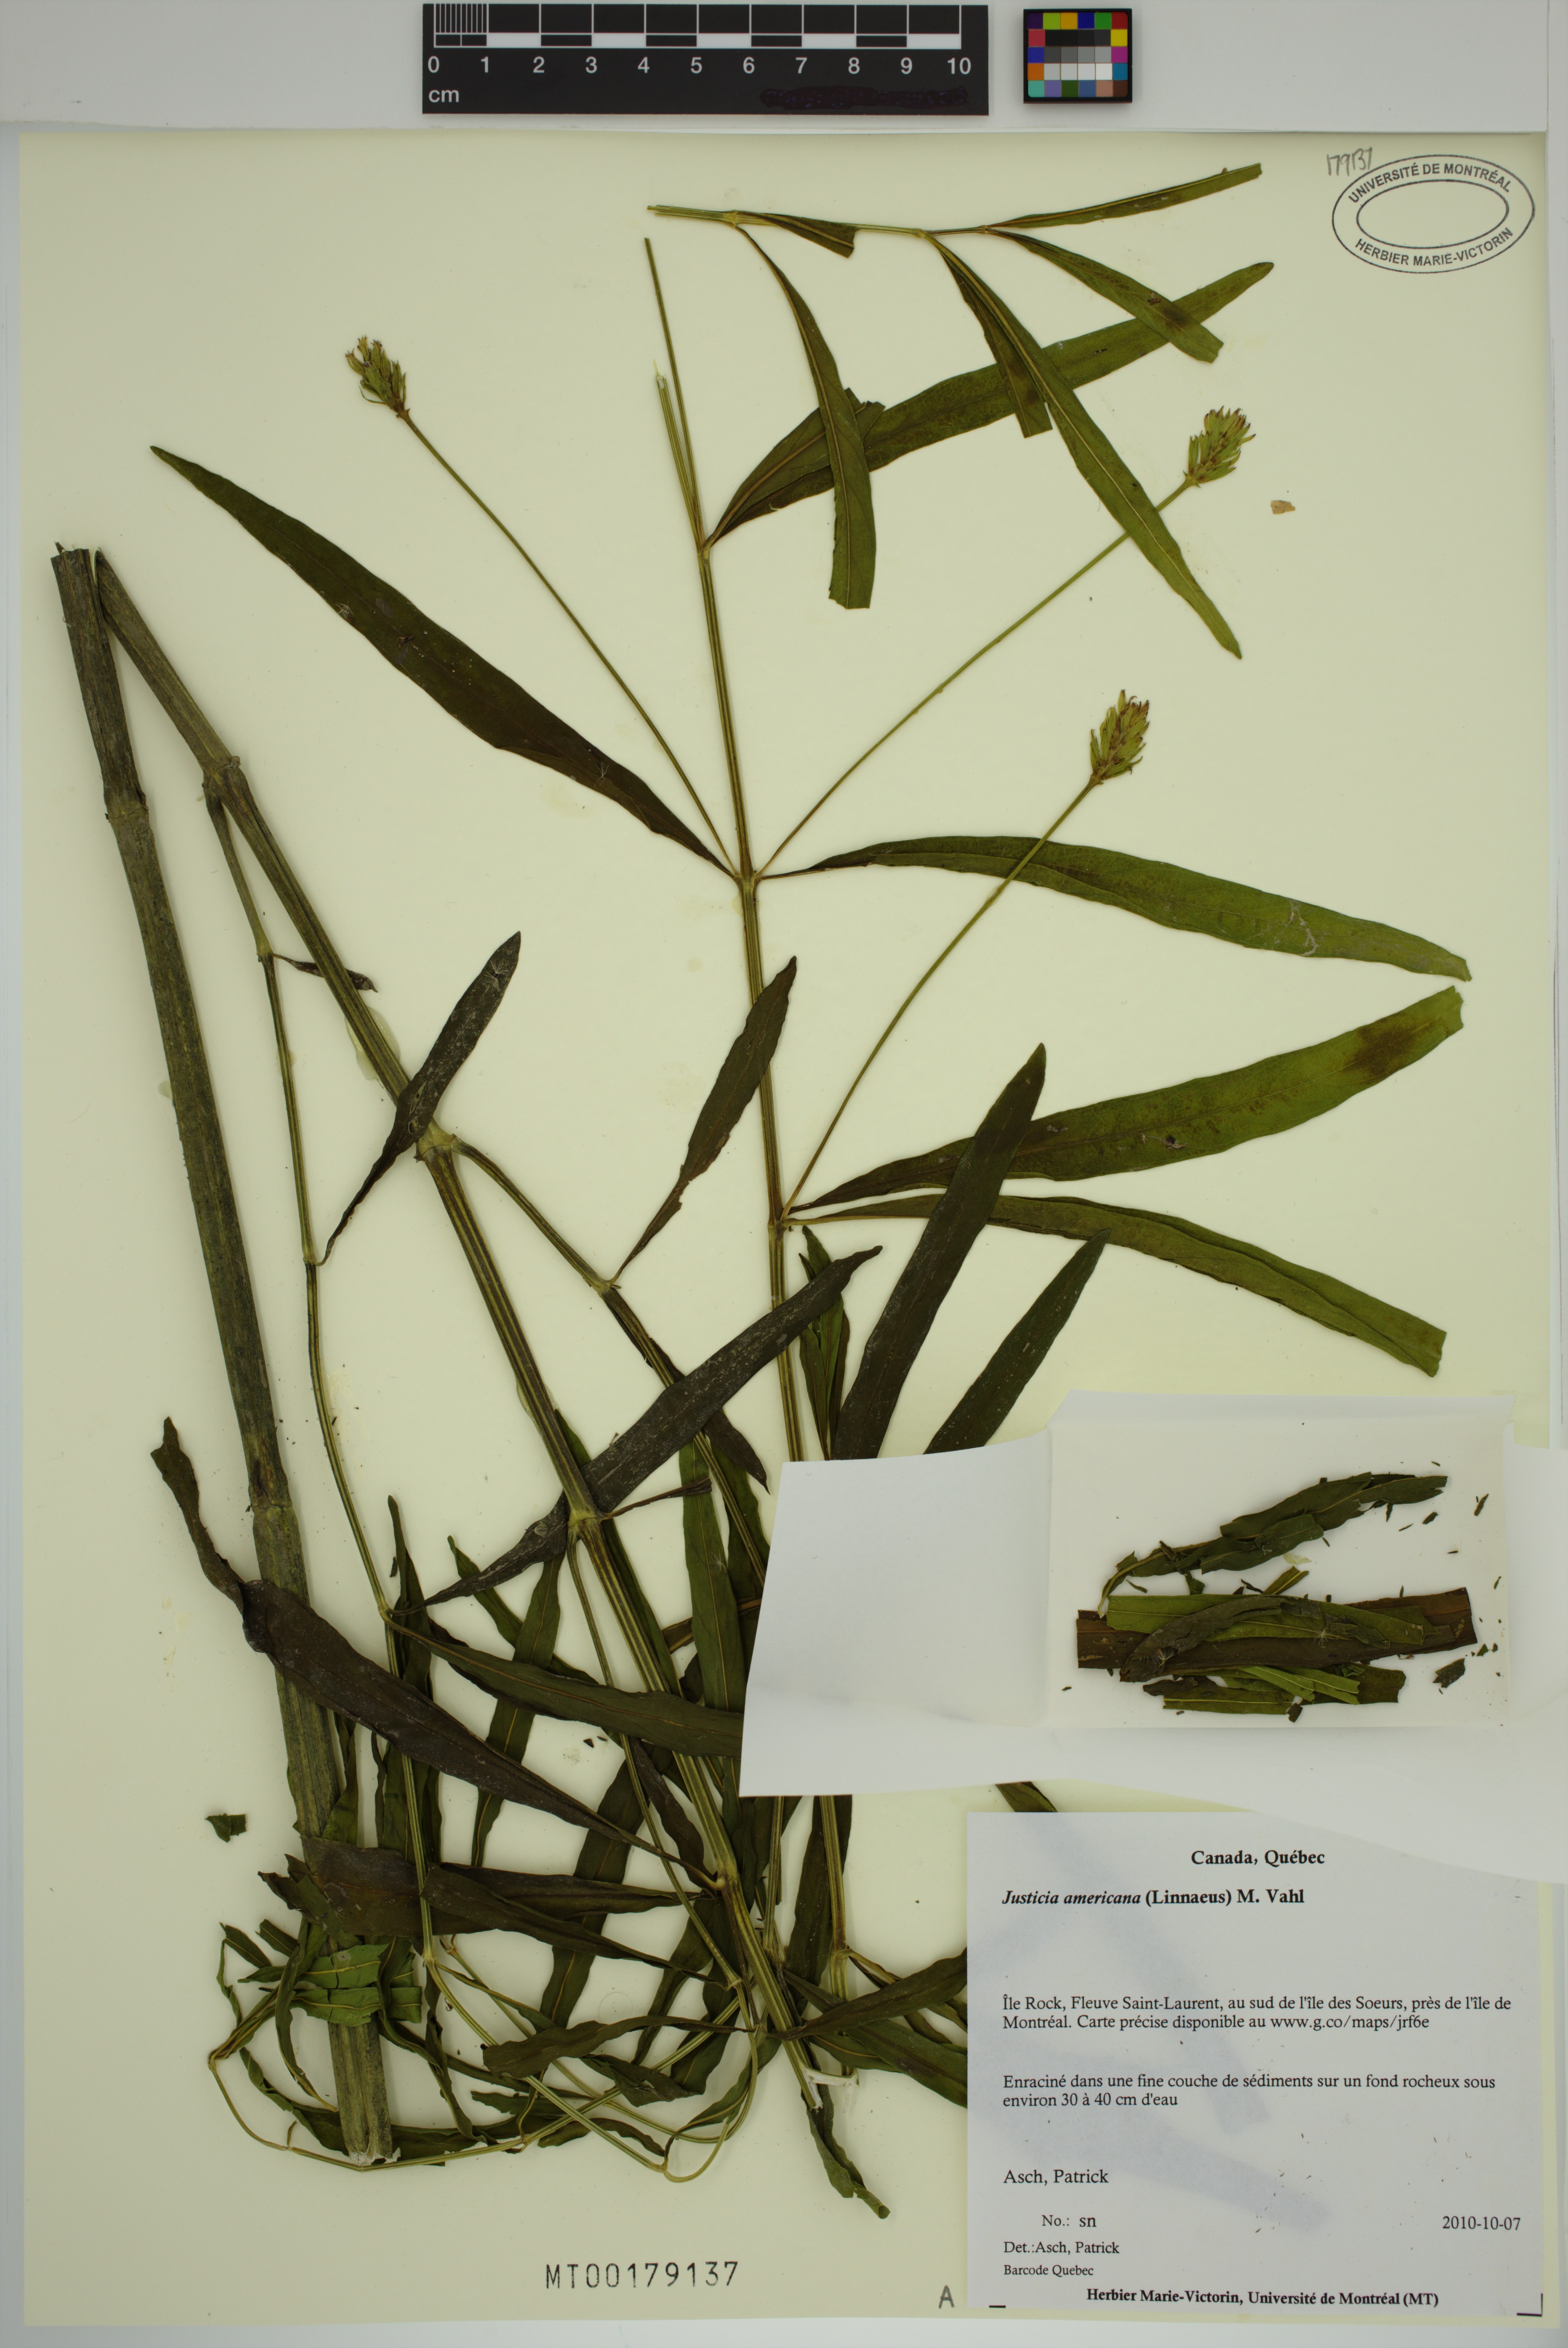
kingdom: Plantae
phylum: Tracheophyta
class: Magnoliopsida
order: Lamiales
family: Acanthaceae
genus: Dianthera
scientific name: Dianthera americana
